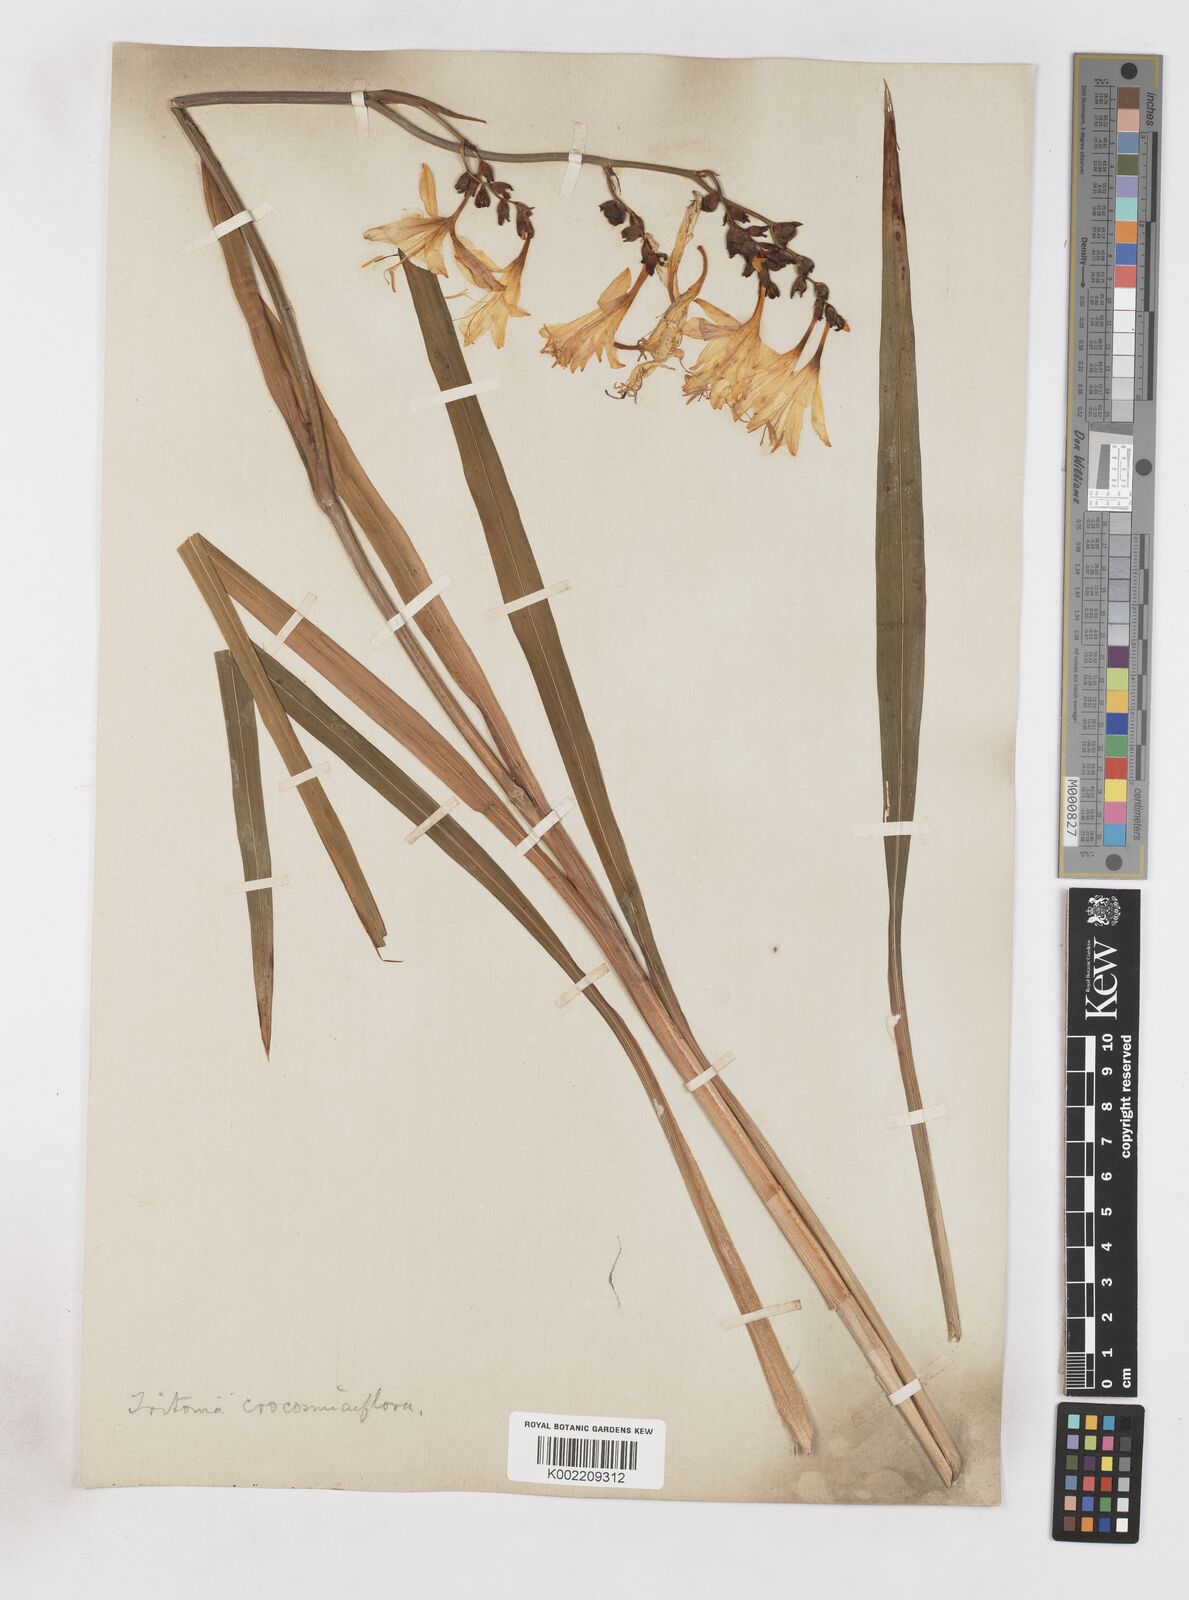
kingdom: Plantae
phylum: Tracheophyta
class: Liliopsida
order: Asparagales
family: Iridaceae
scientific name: Iridaceae
